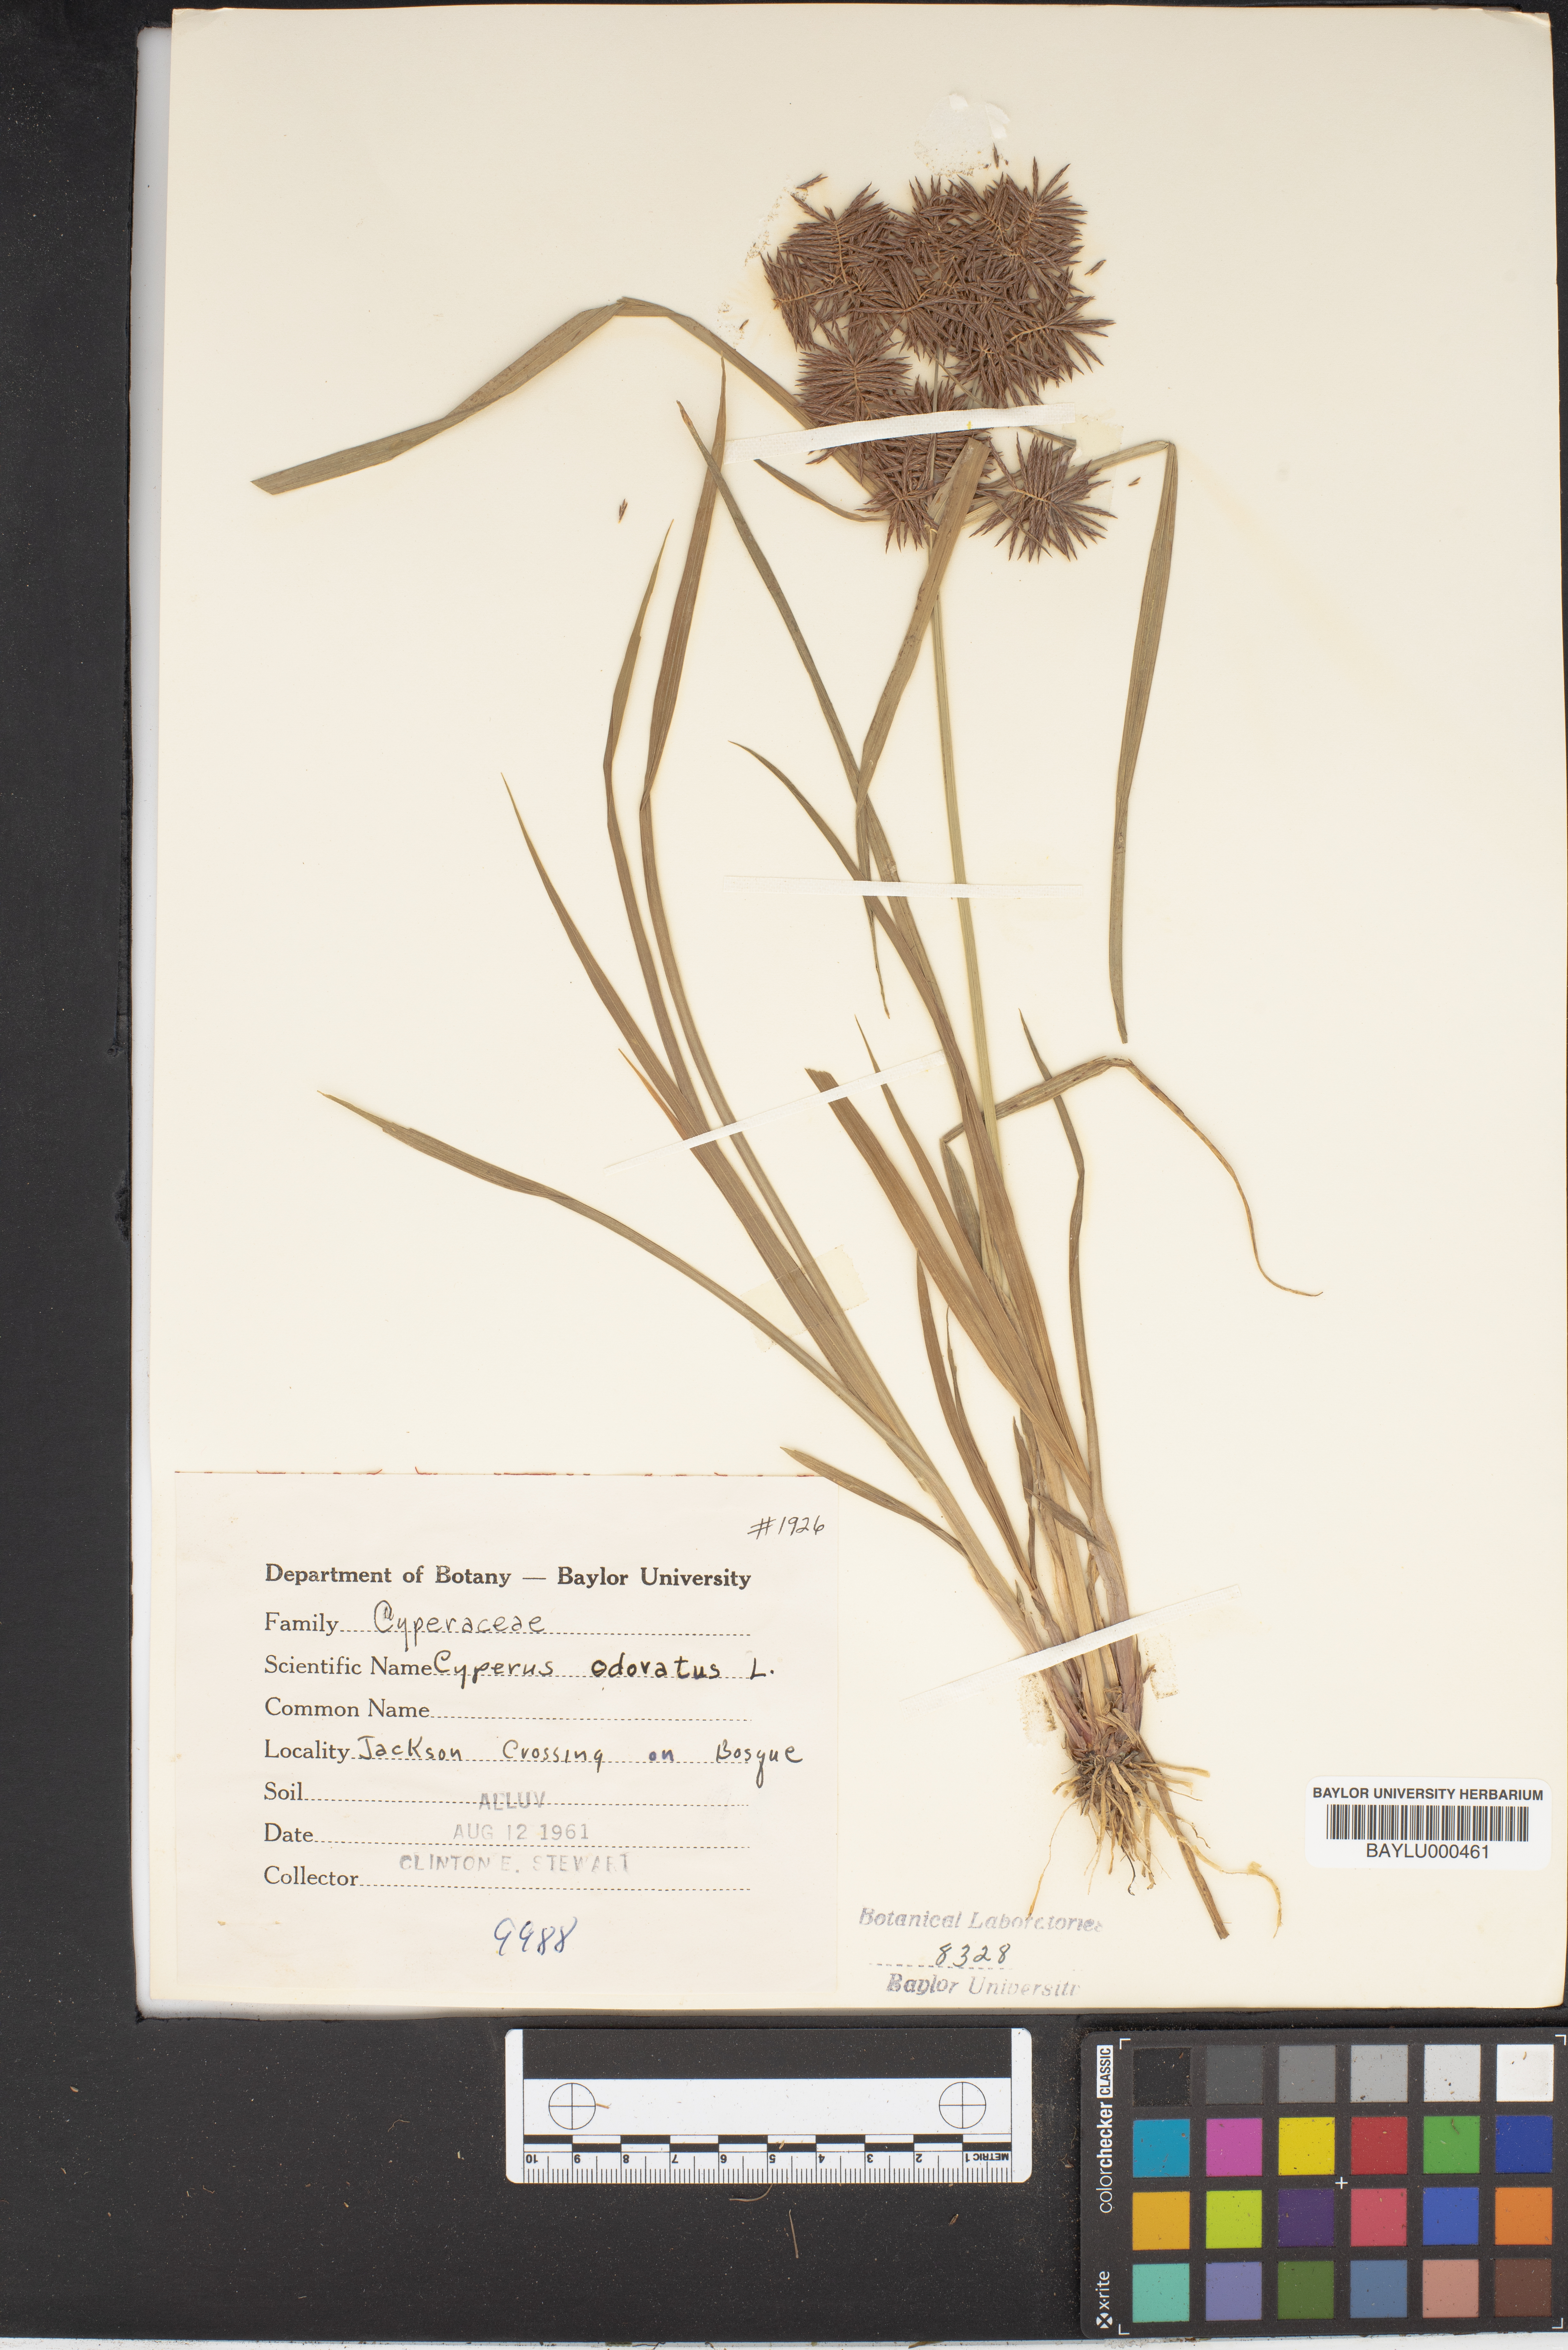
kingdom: Plantae
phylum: Tracheophyta
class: Liliopsida
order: Poales
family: Cyperaceae
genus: Cyperus
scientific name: Cyperus odoratus
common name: Fragrant flatsedge
